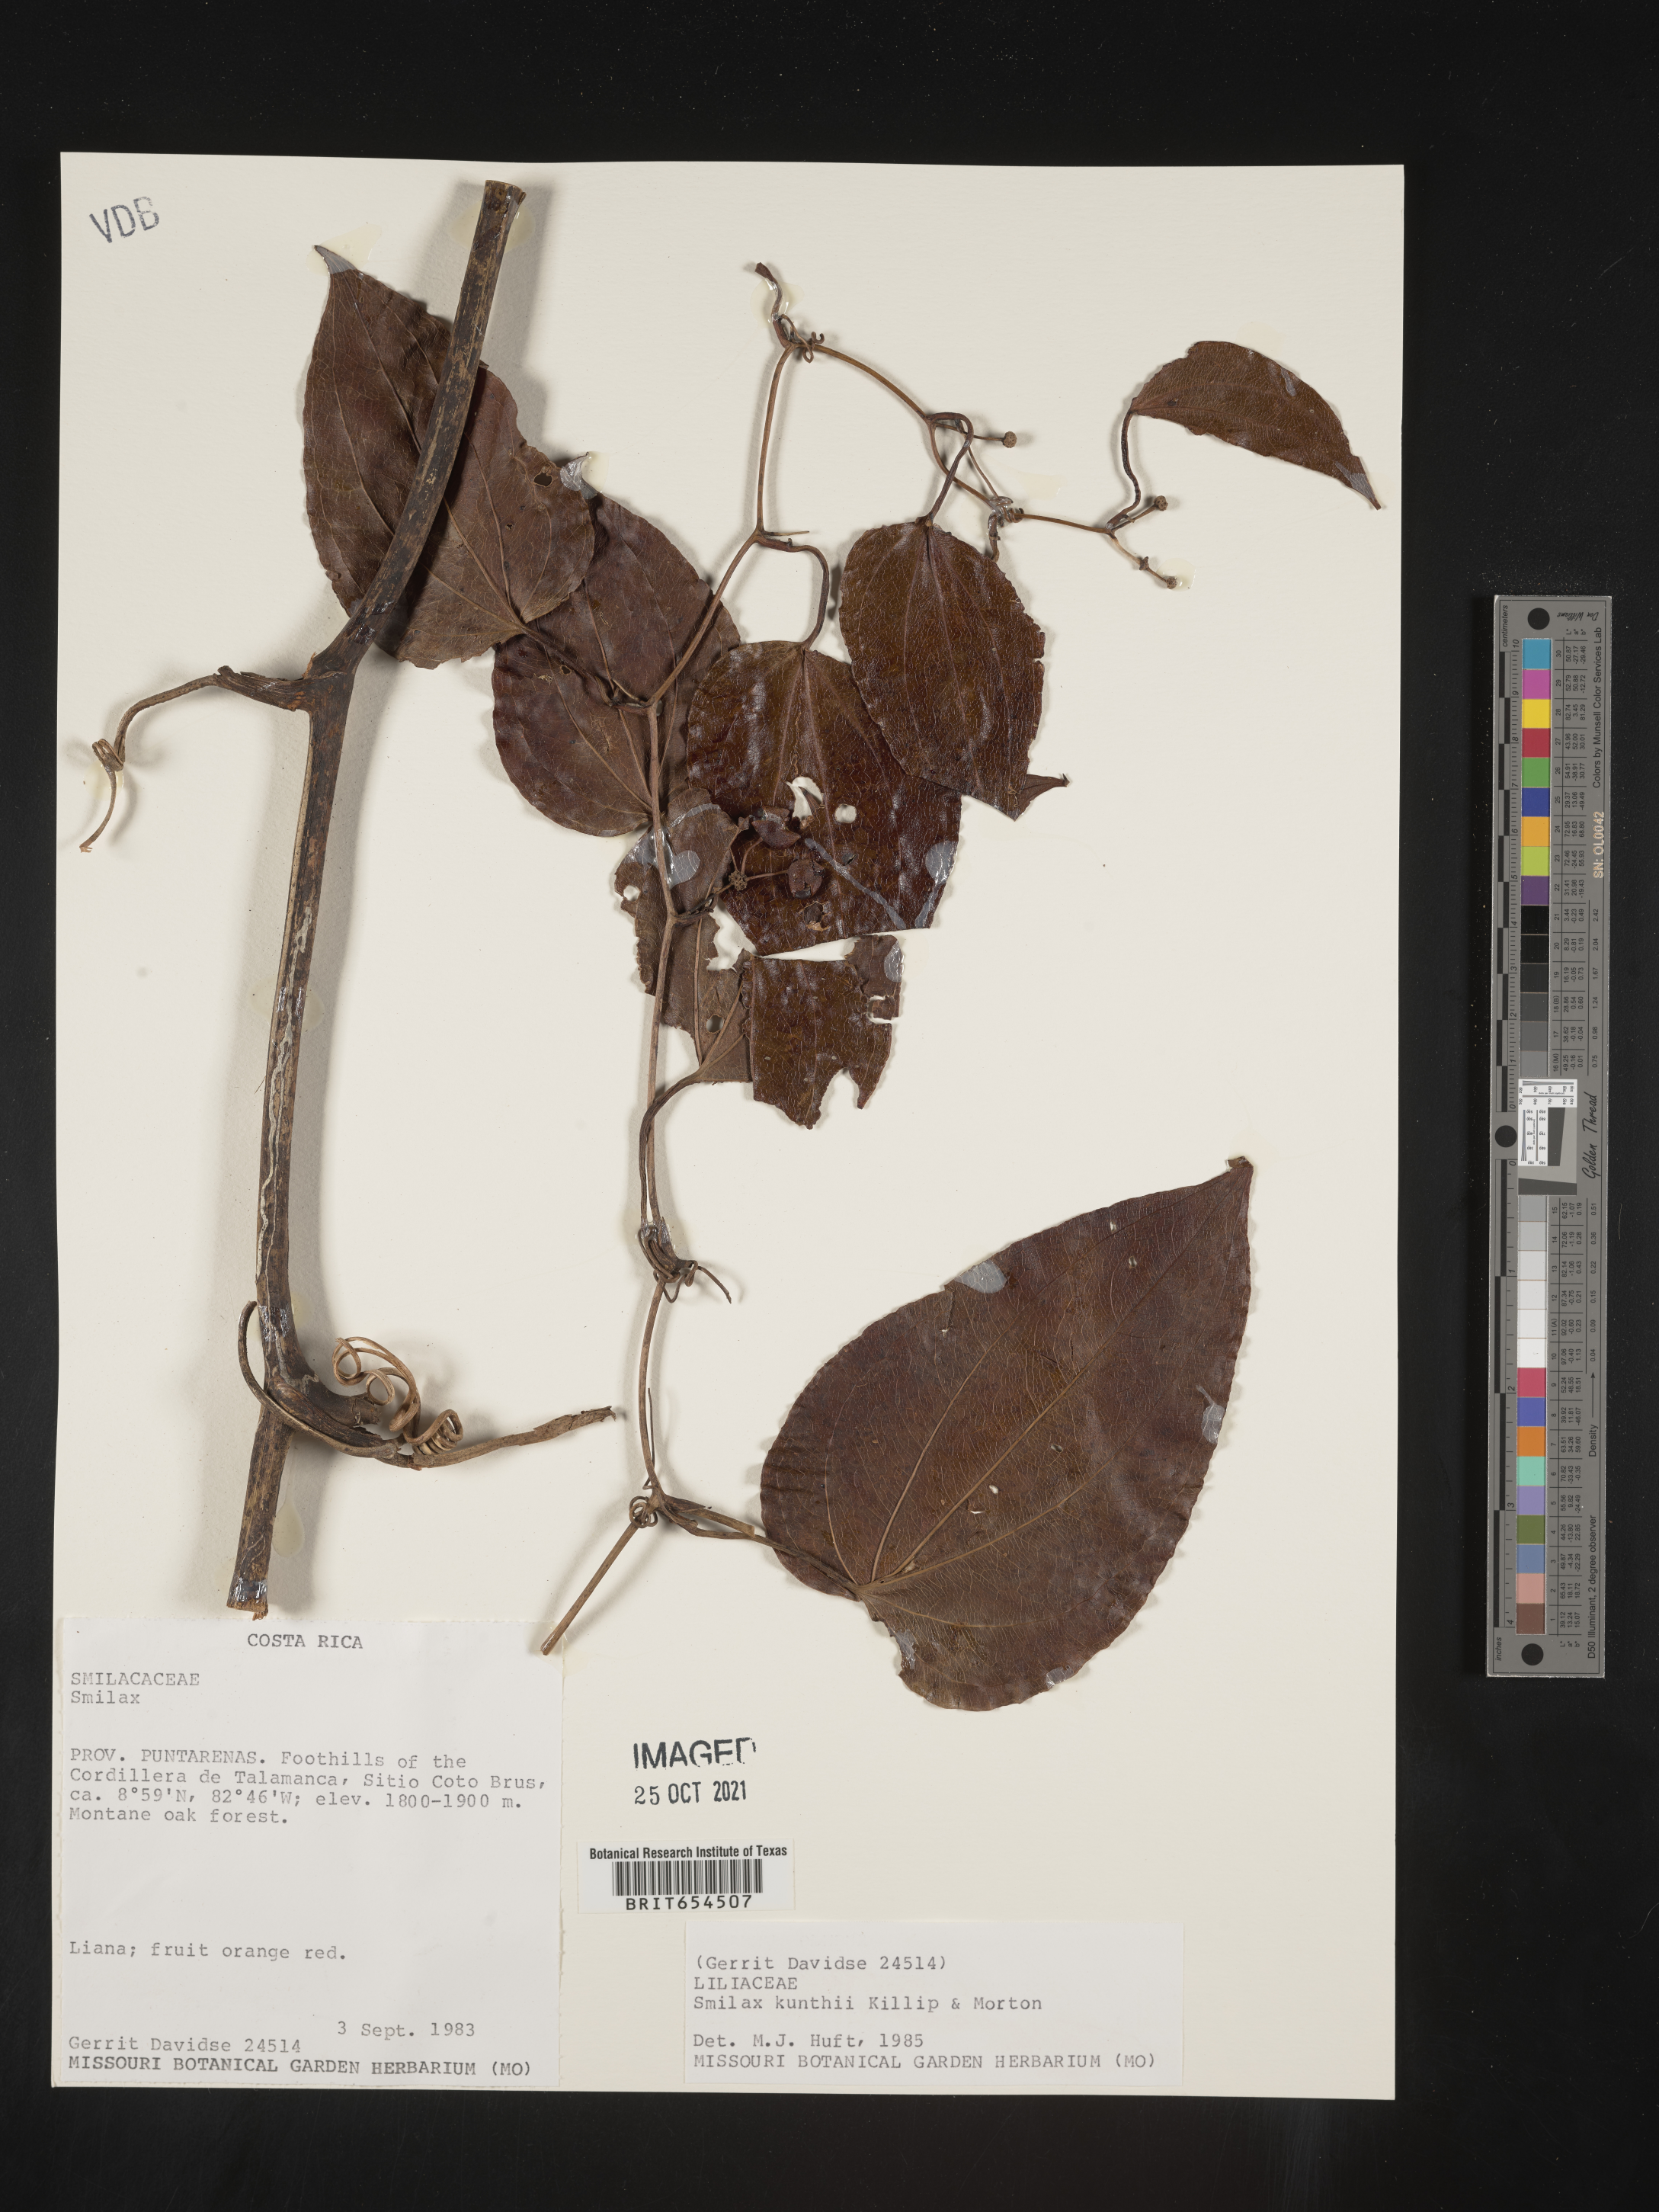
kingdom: Plantae
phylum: Tracheophyta
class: Liliopsida
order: Liliales
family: Smilacaceae
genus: Smilax
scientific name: Smilax
